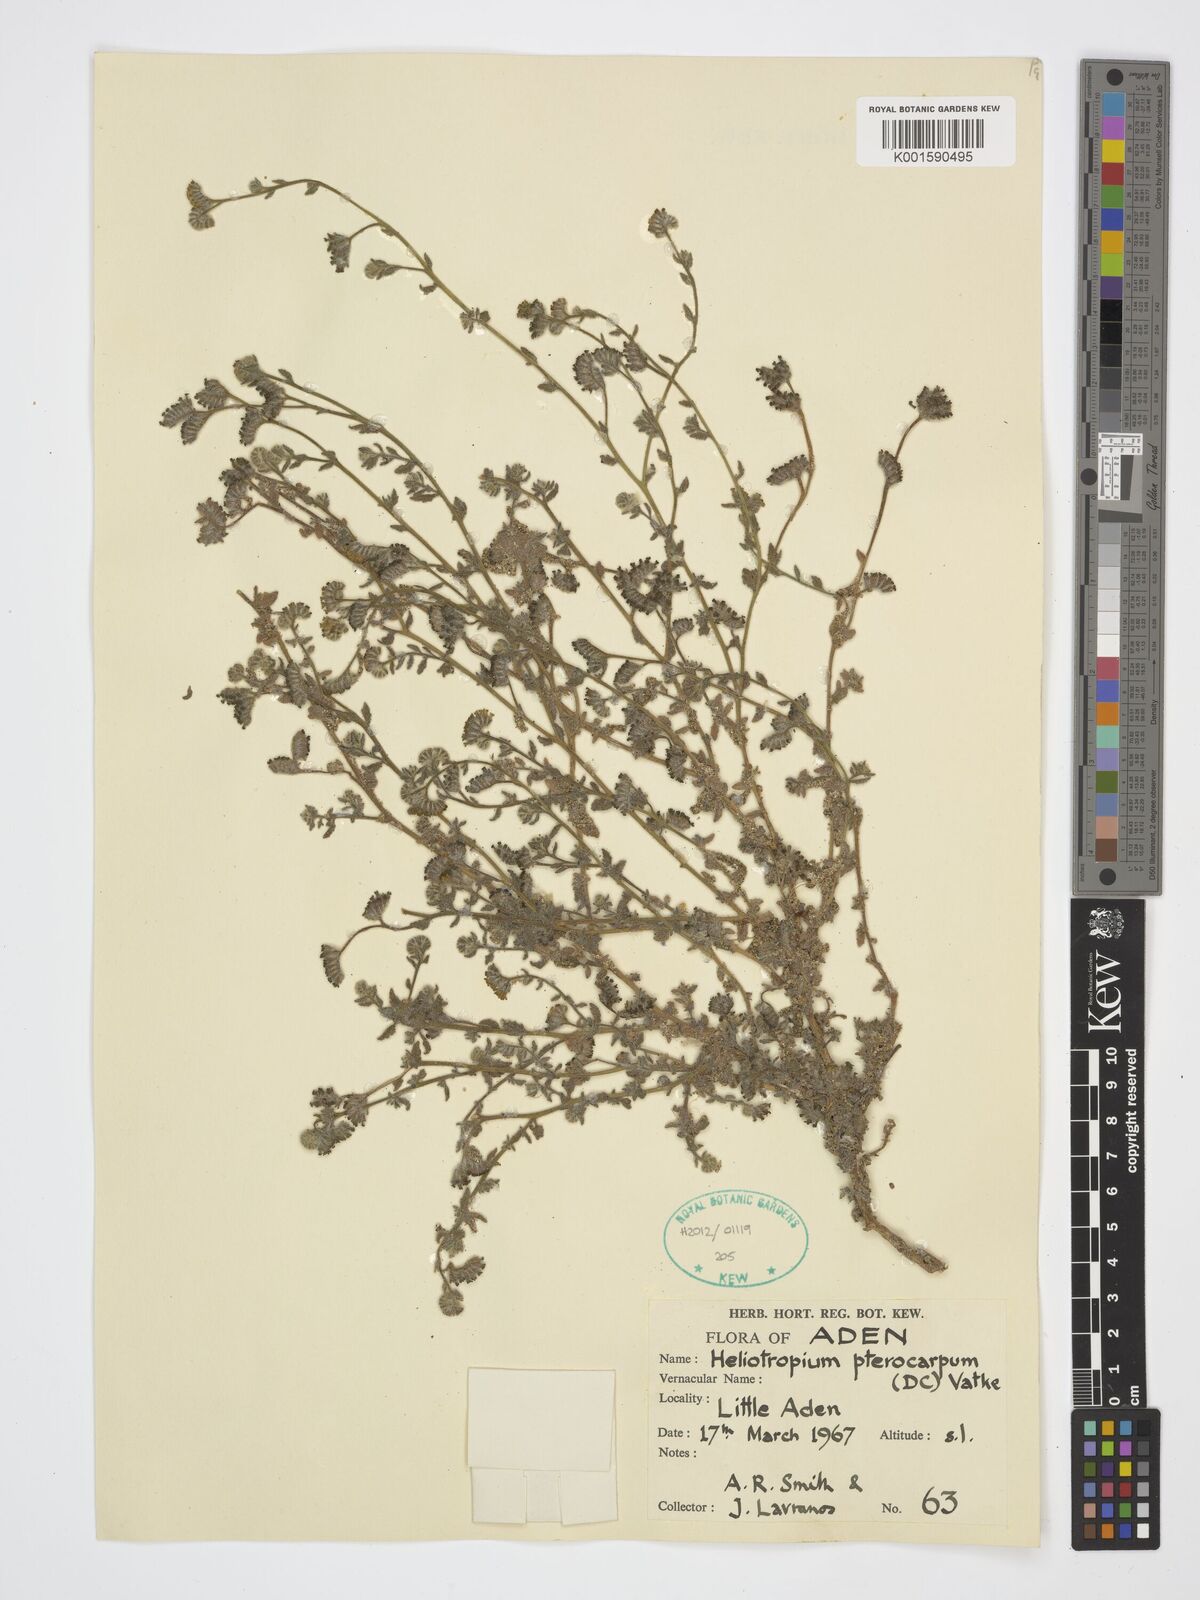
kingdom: Plantae
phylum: Tracheophyta
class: Magnoliopsida
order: Boraginales
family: Heliotropiaceae
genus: Heliotropium
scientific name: Heliotropium pterocarpum
